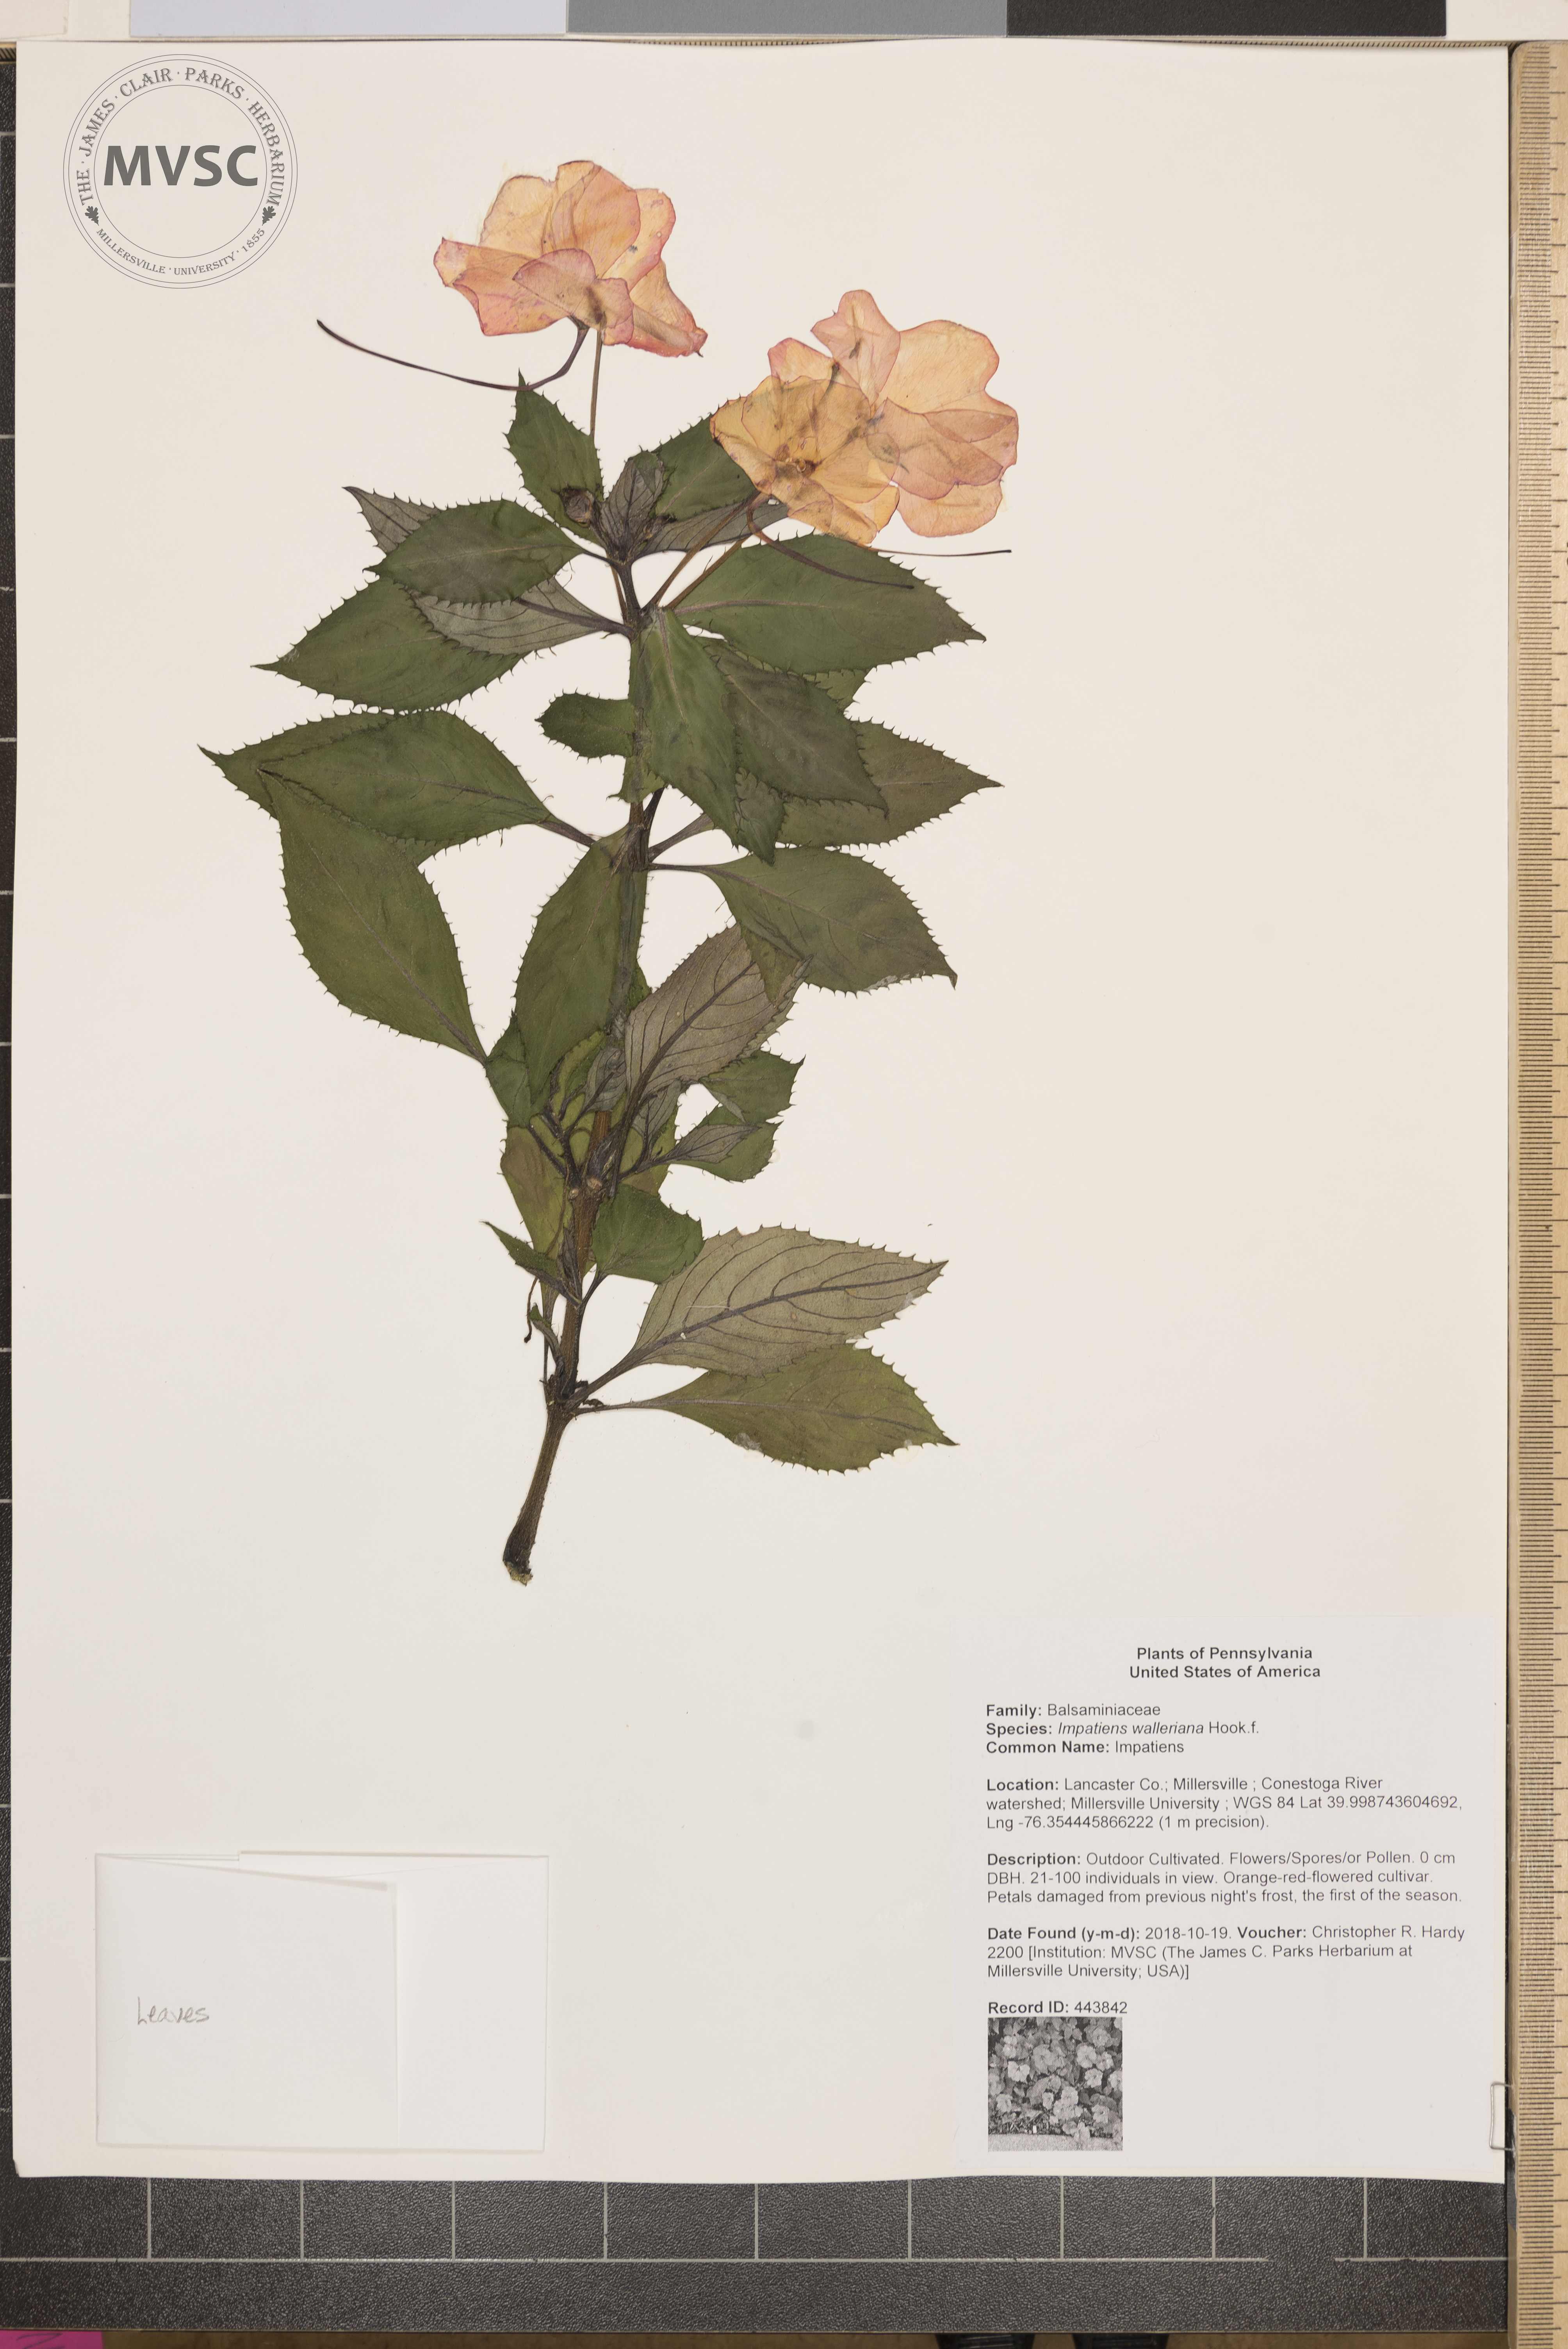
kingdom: Plantae
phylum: Tracheophyta
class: Magnoliopsida
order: Ericales
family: Balsaminaceae
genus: Impatiens
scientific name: Impatiens walleriana
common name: Impatiens
